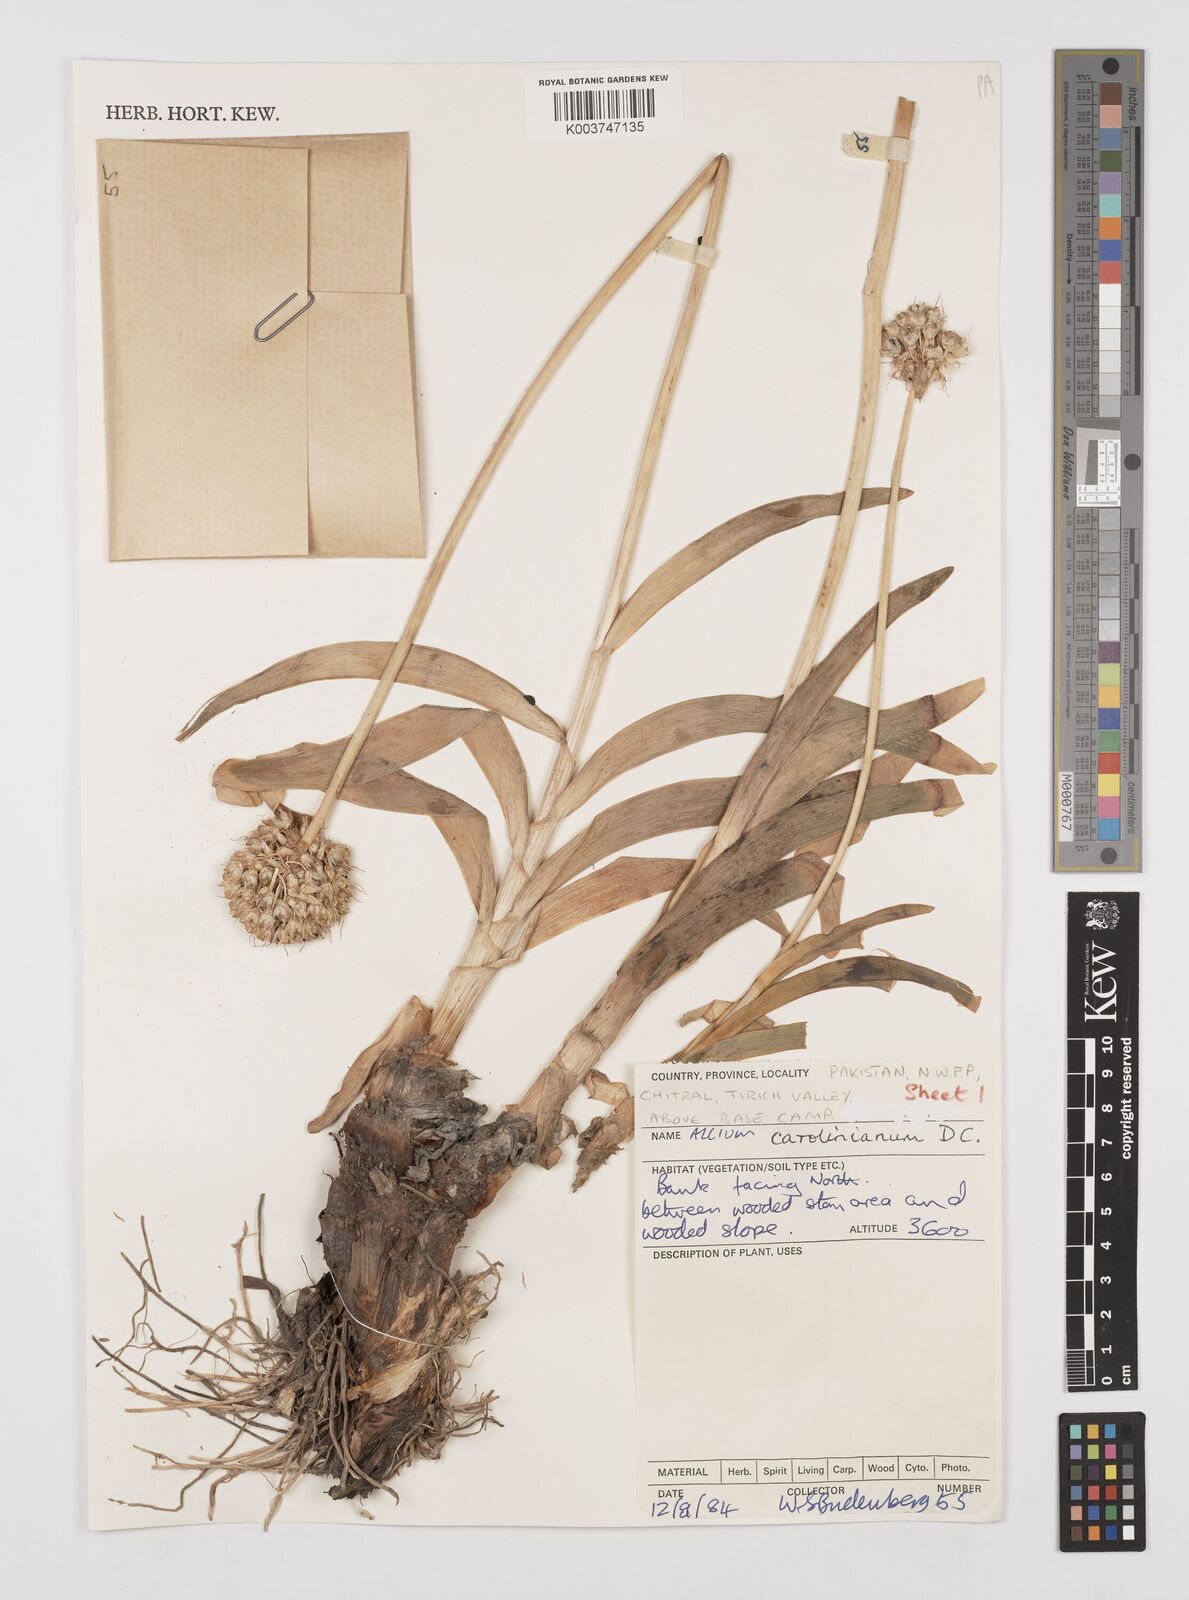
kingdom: Plantae
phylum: Tracheophyta
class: Liliopsida
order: Asparagales
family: Amaryllidaceae
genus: Allium
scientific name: Allium carolinianum
